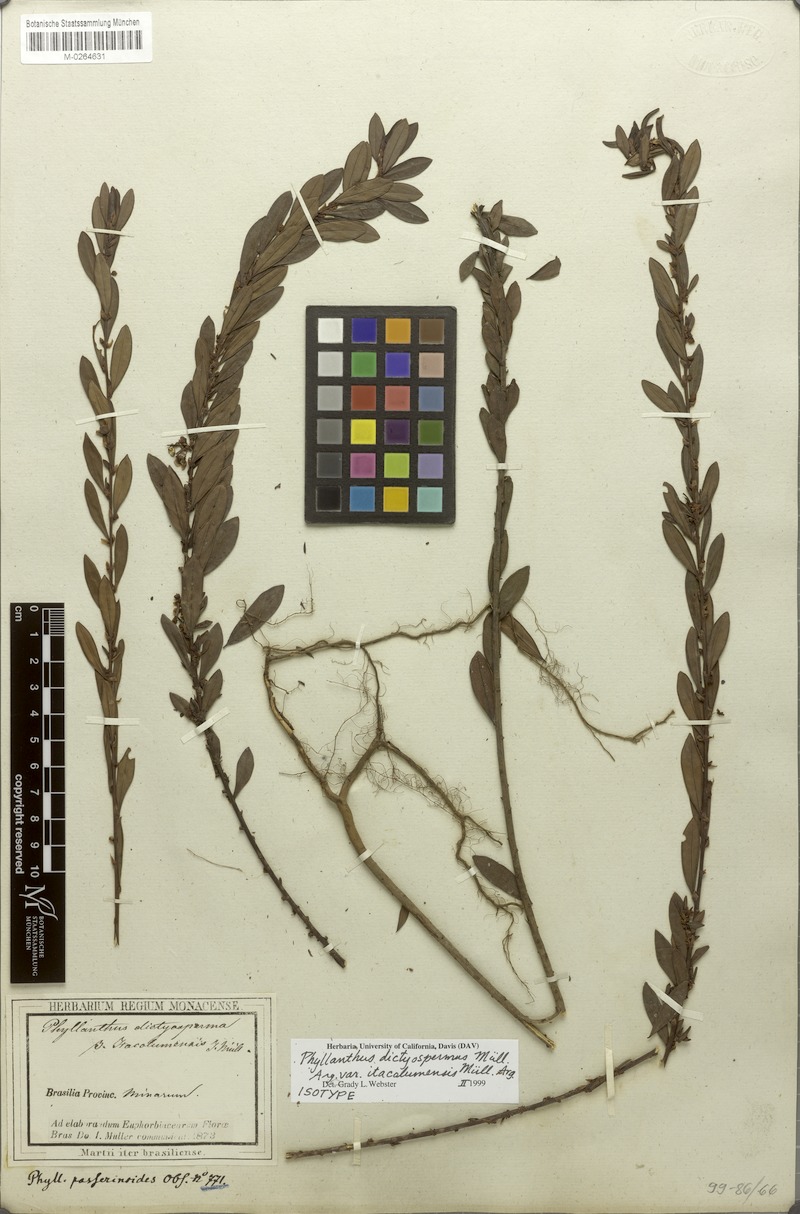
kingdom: Plantae
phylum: Tracheophyta
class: Magnoliopsida
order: Malpighiales
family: Phyllanthaceae
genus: Phyllanthus
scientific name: Phyllanthus dictyospermus
